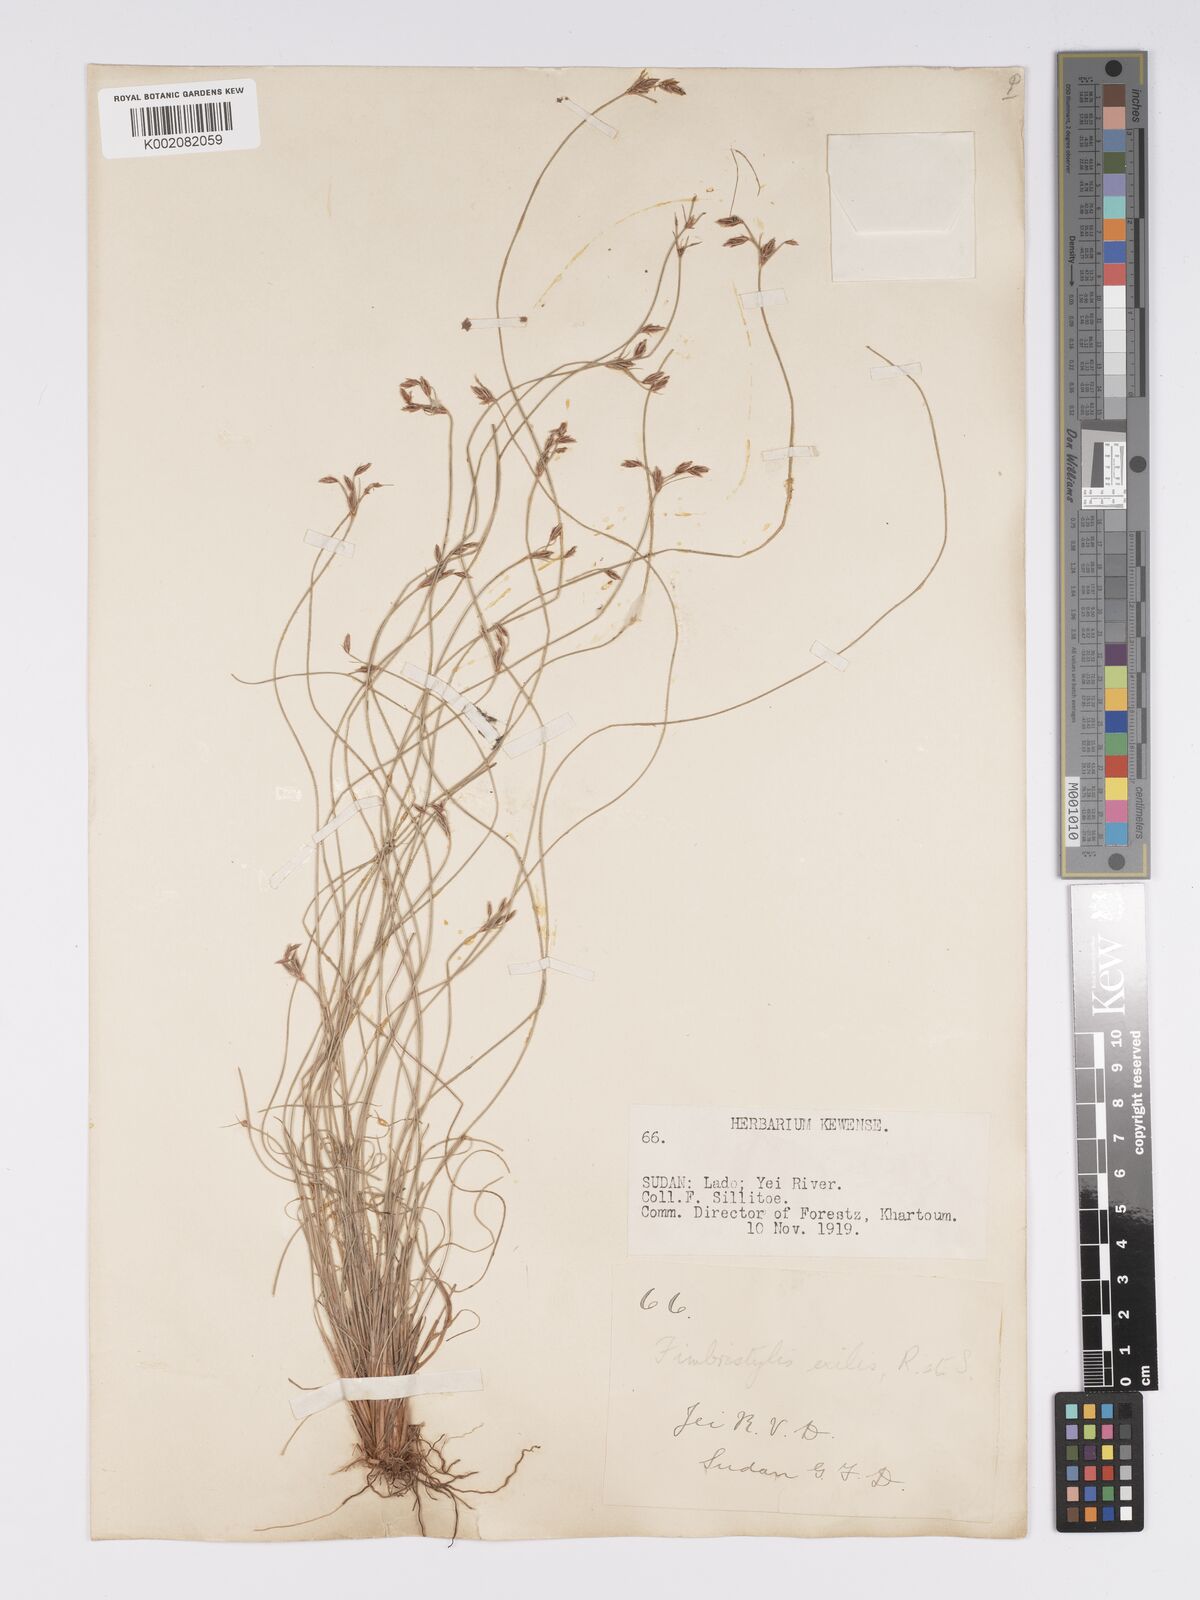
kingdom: Plantae
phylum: Tracheophyta
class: Liliopsida
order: Poales
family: Cyperaceae
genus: Bulbostylis
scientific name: Bulbostylis hispidula
